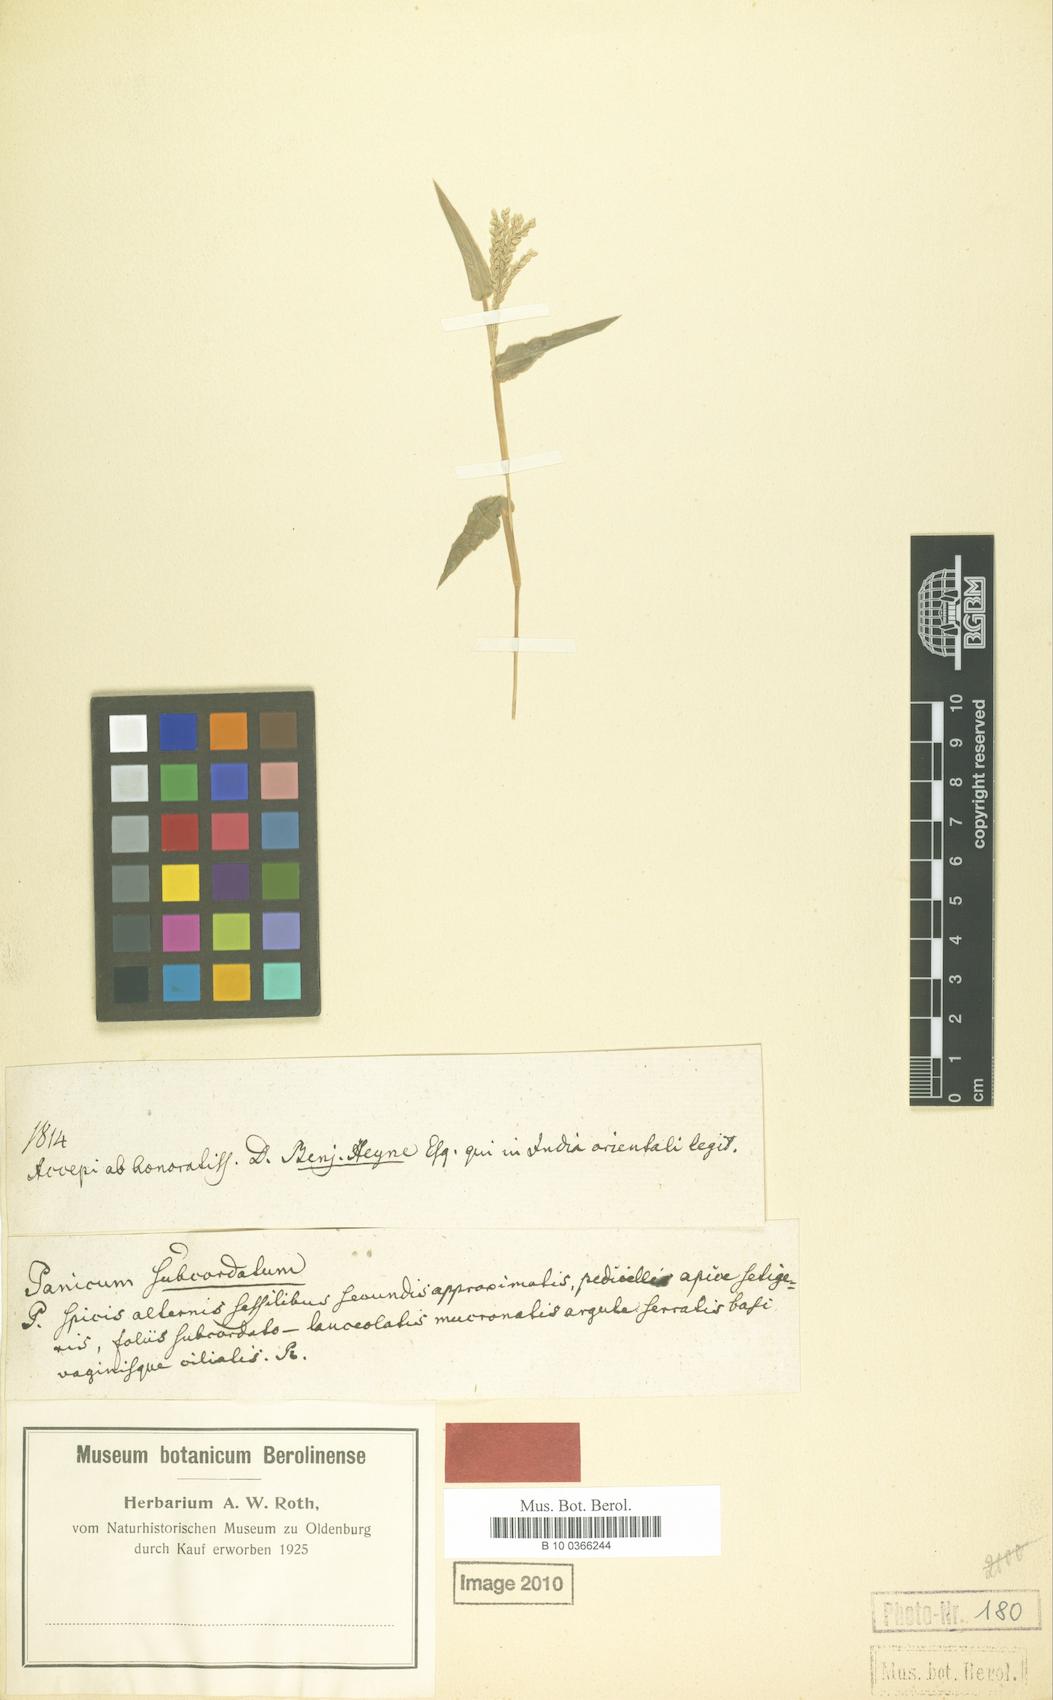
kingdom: Plantae
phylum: Tracheophyta
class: Liliopsida
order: Poales
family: Poaceae
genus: Urochloa
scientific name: Urochloa reptans
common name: Sprawling signalgrass
